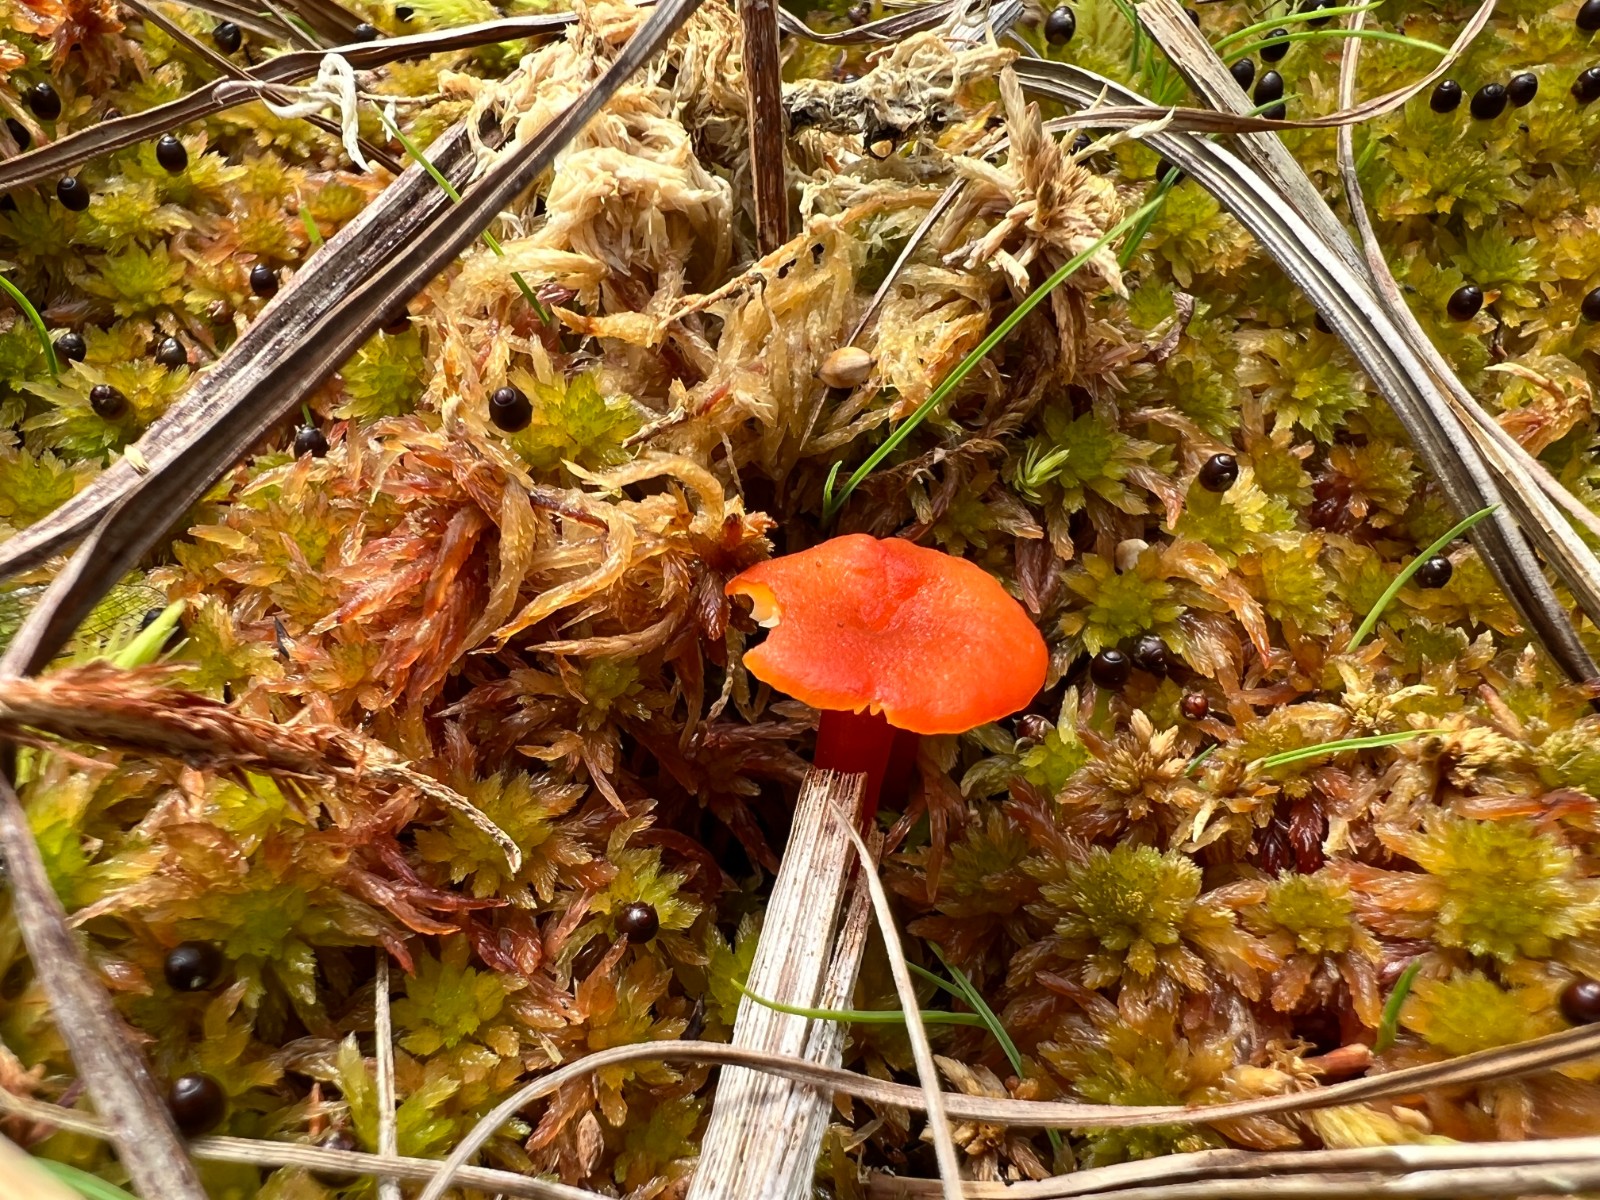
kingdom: Fungi
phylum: Basidiomycota
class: Agaricomycetes
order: Agaricales
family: Hygrophoraceae
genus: Hygrocybe
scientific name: Hygrocybe cantharellus
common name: kantarel-vokshat
